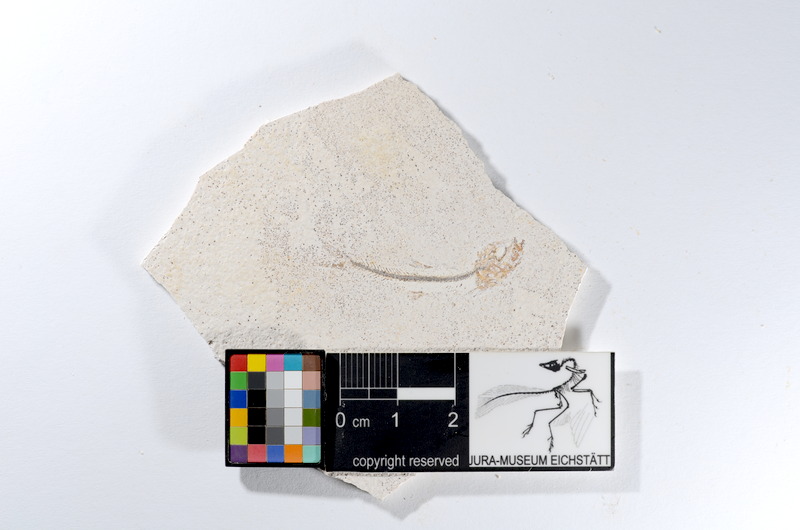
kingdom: Animalia
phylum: Chordata
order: Salmoniformes
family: Orthogonikleithridae
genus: Orthogonikleithrus
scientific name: Orthogonikleithrus hoelli
